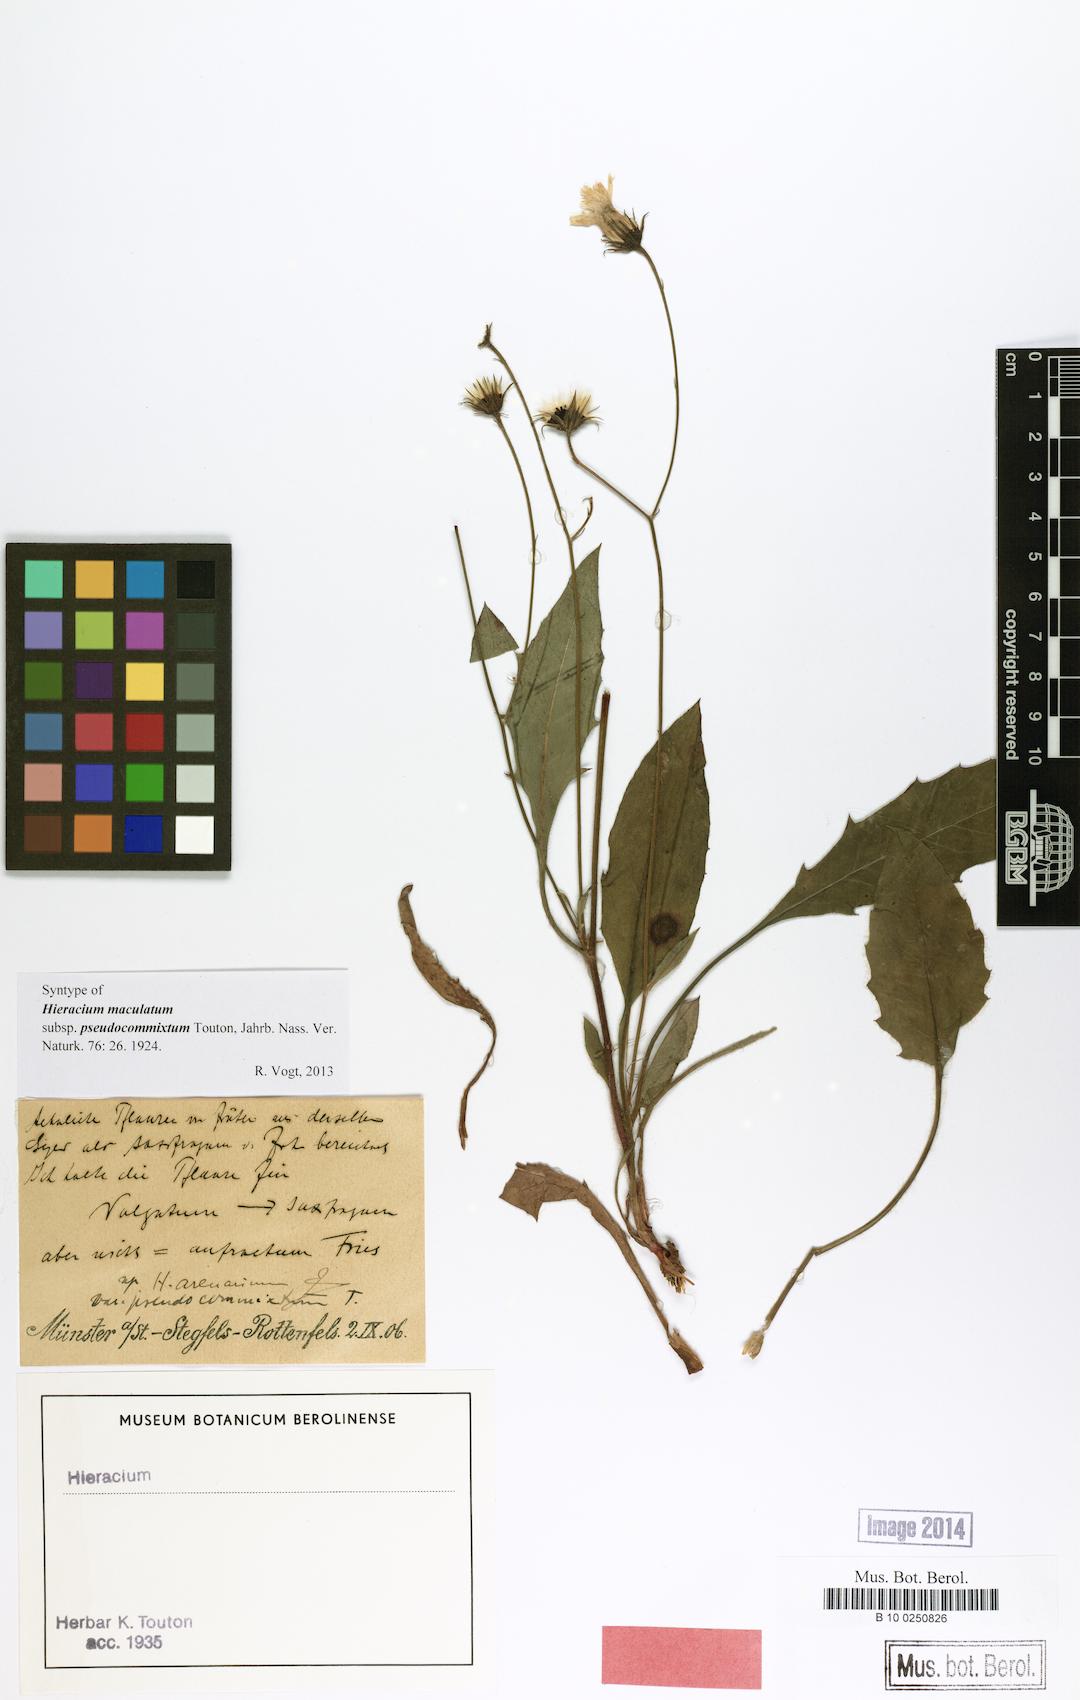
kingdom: Plantae
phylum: Tracheophyta
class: Magnoliopsida
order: Asterales
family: Asteraceae
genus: Hieracium
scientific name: Hieracium maculatum
